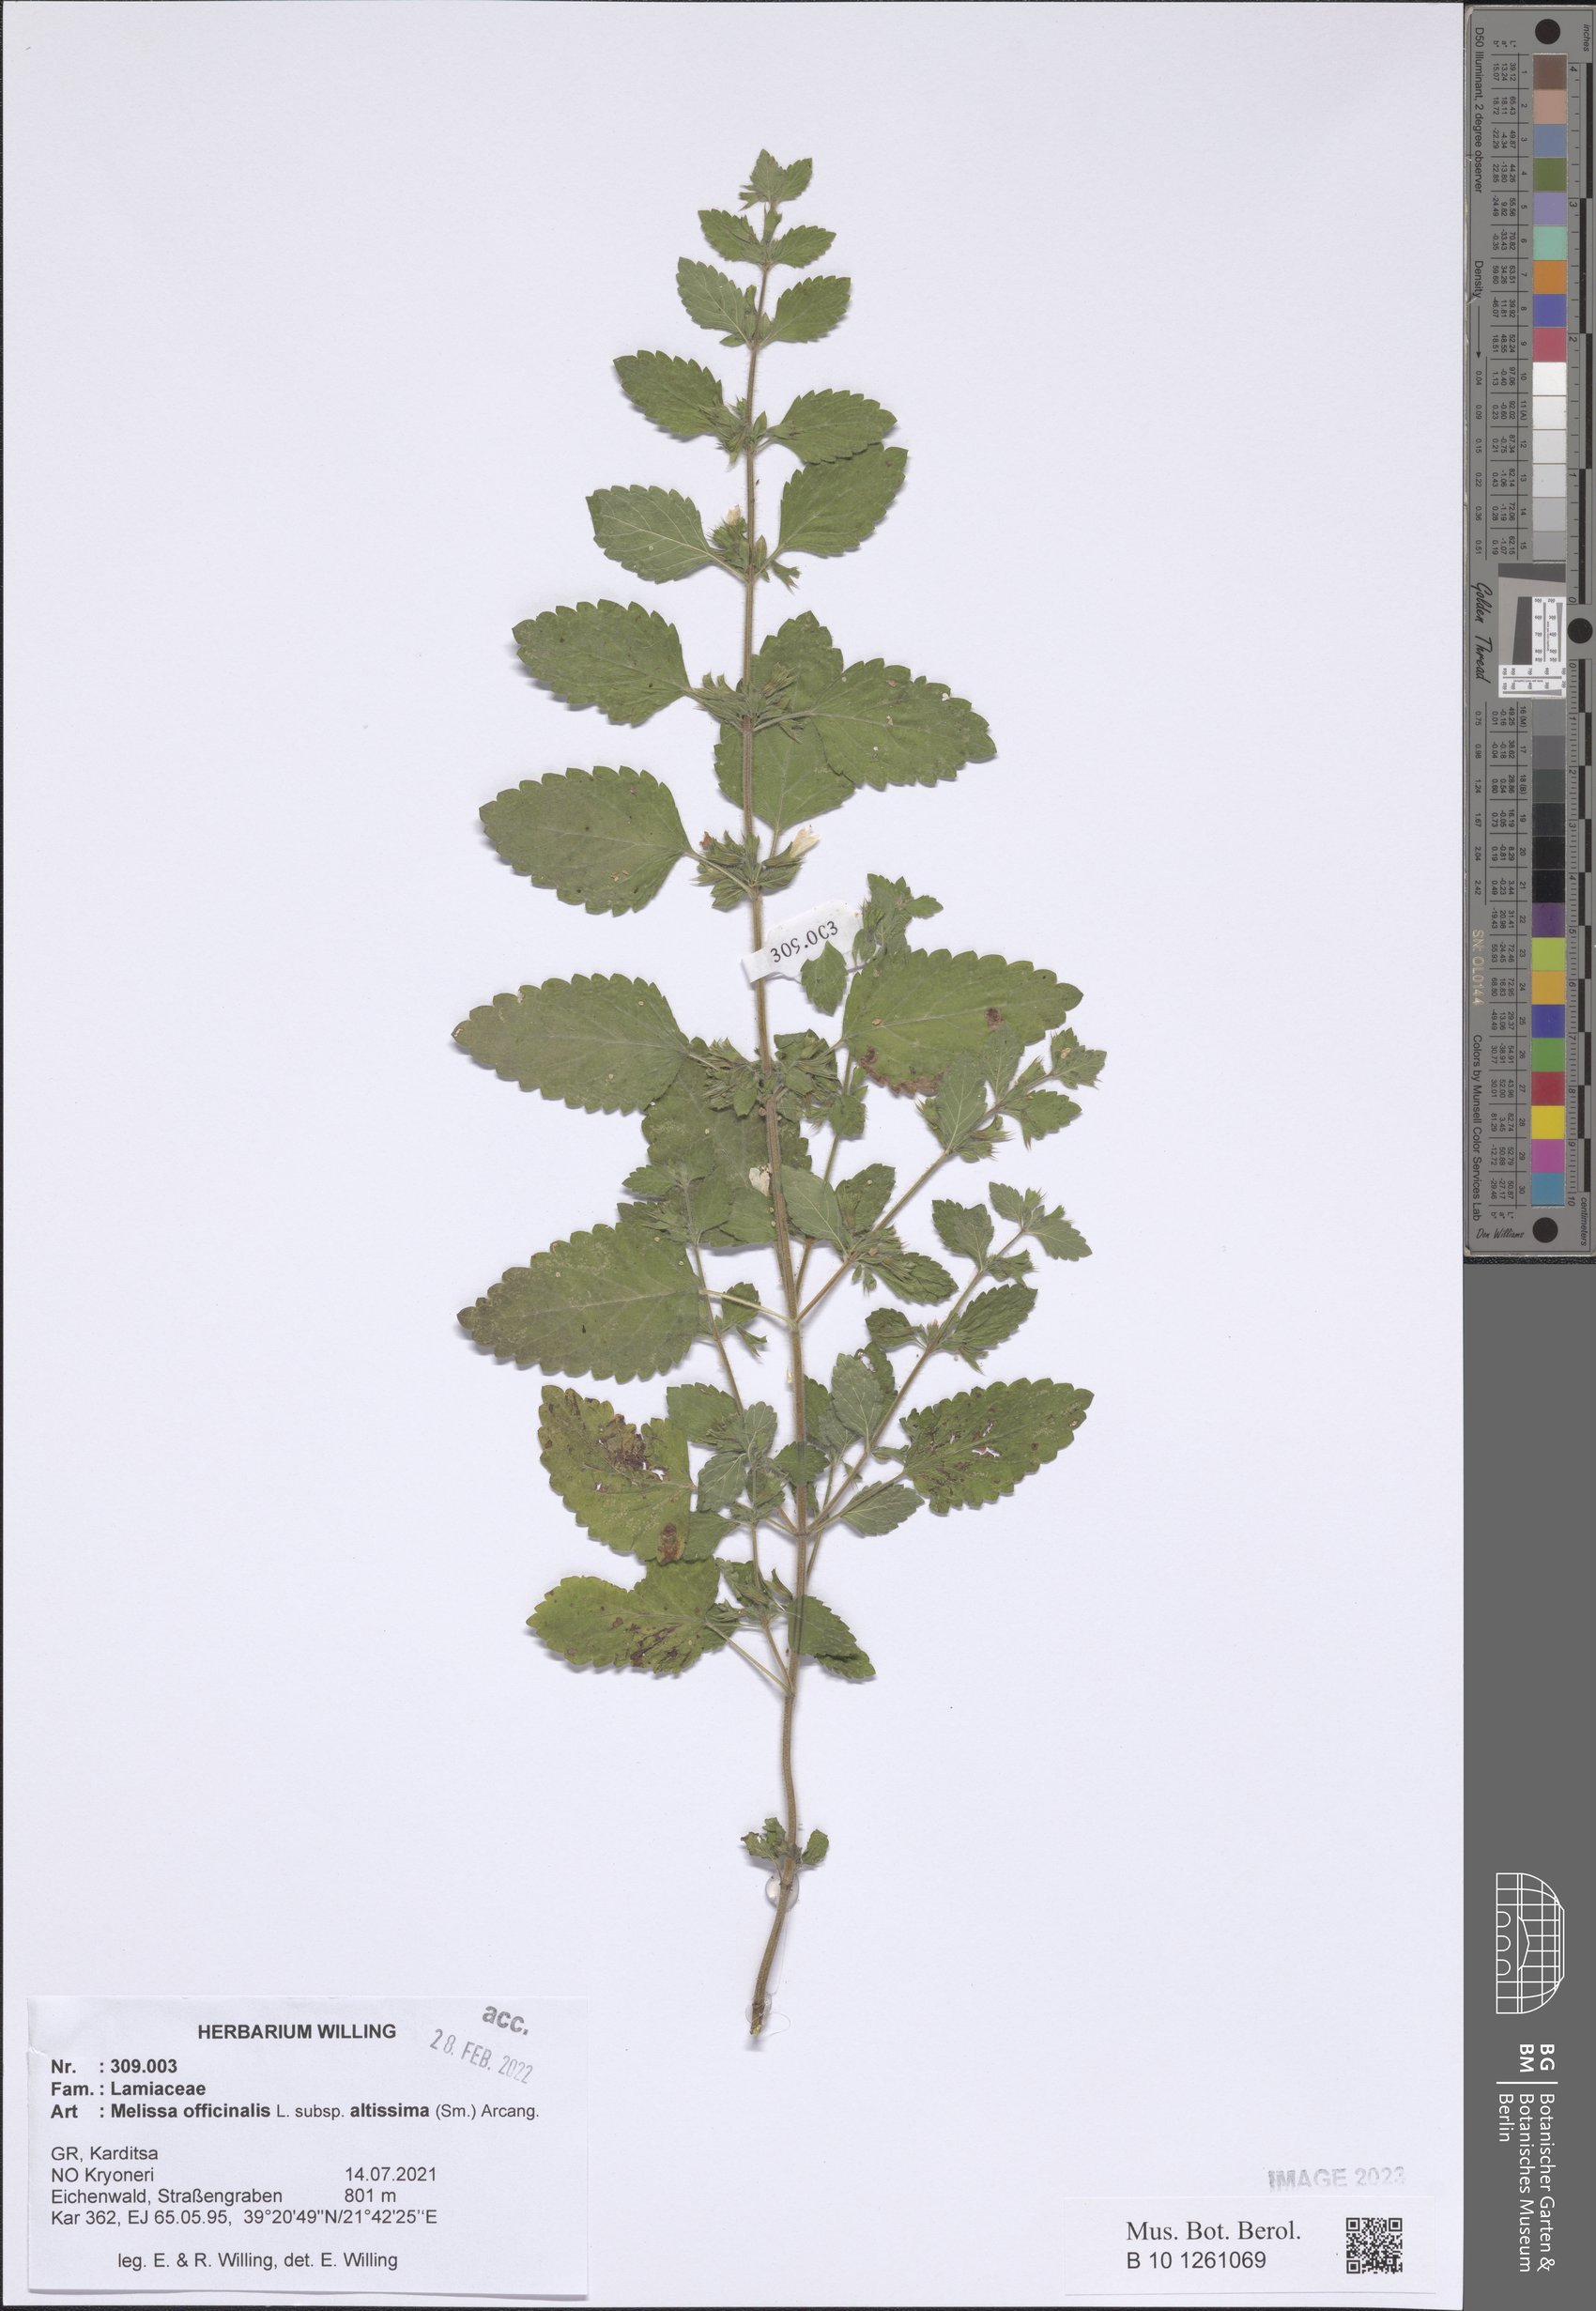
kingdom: Plantae
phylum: Tracheophyta
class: Magnoliopsida
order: Lamiales
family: Lamiaceae
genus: Melissa
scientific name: Melissa officinalis
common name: Balm
